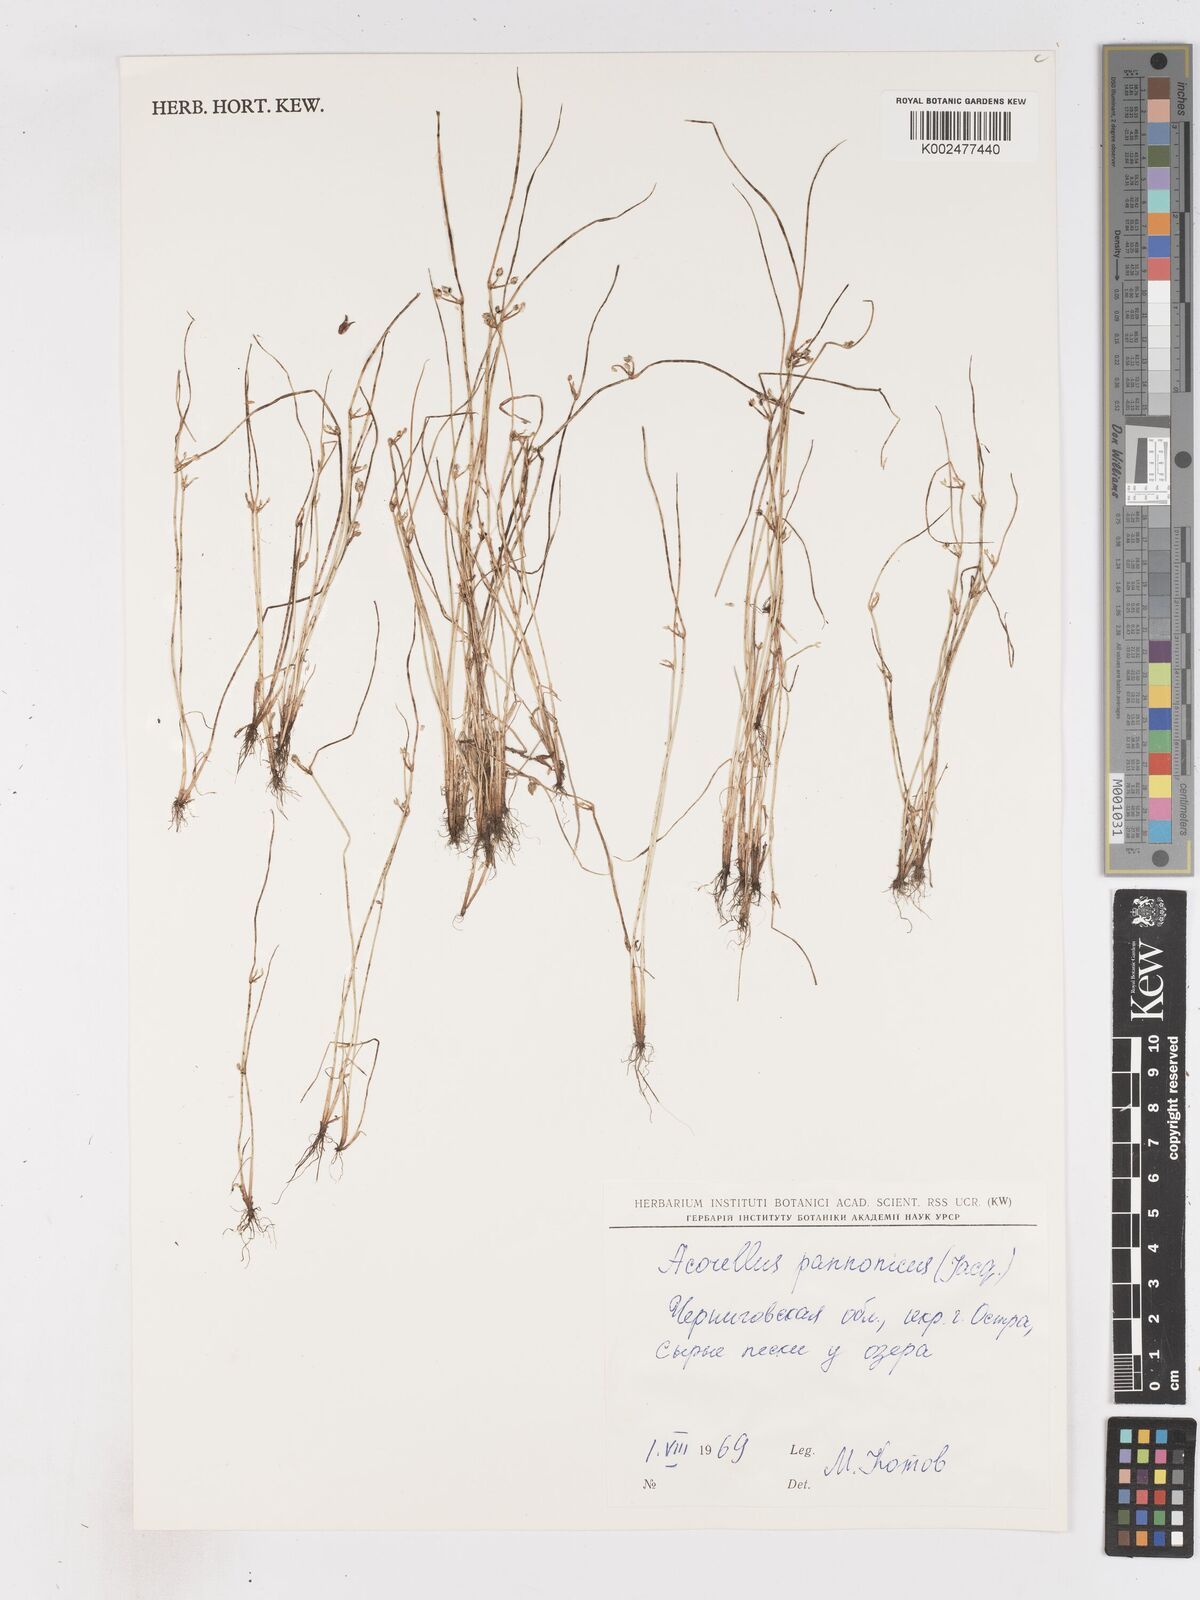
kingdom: Plantae
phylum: Tracheophyta
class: Liliopsida
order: Poales
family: Cyperaceae
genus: Cyperus
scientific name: Cyperus pannonicus
